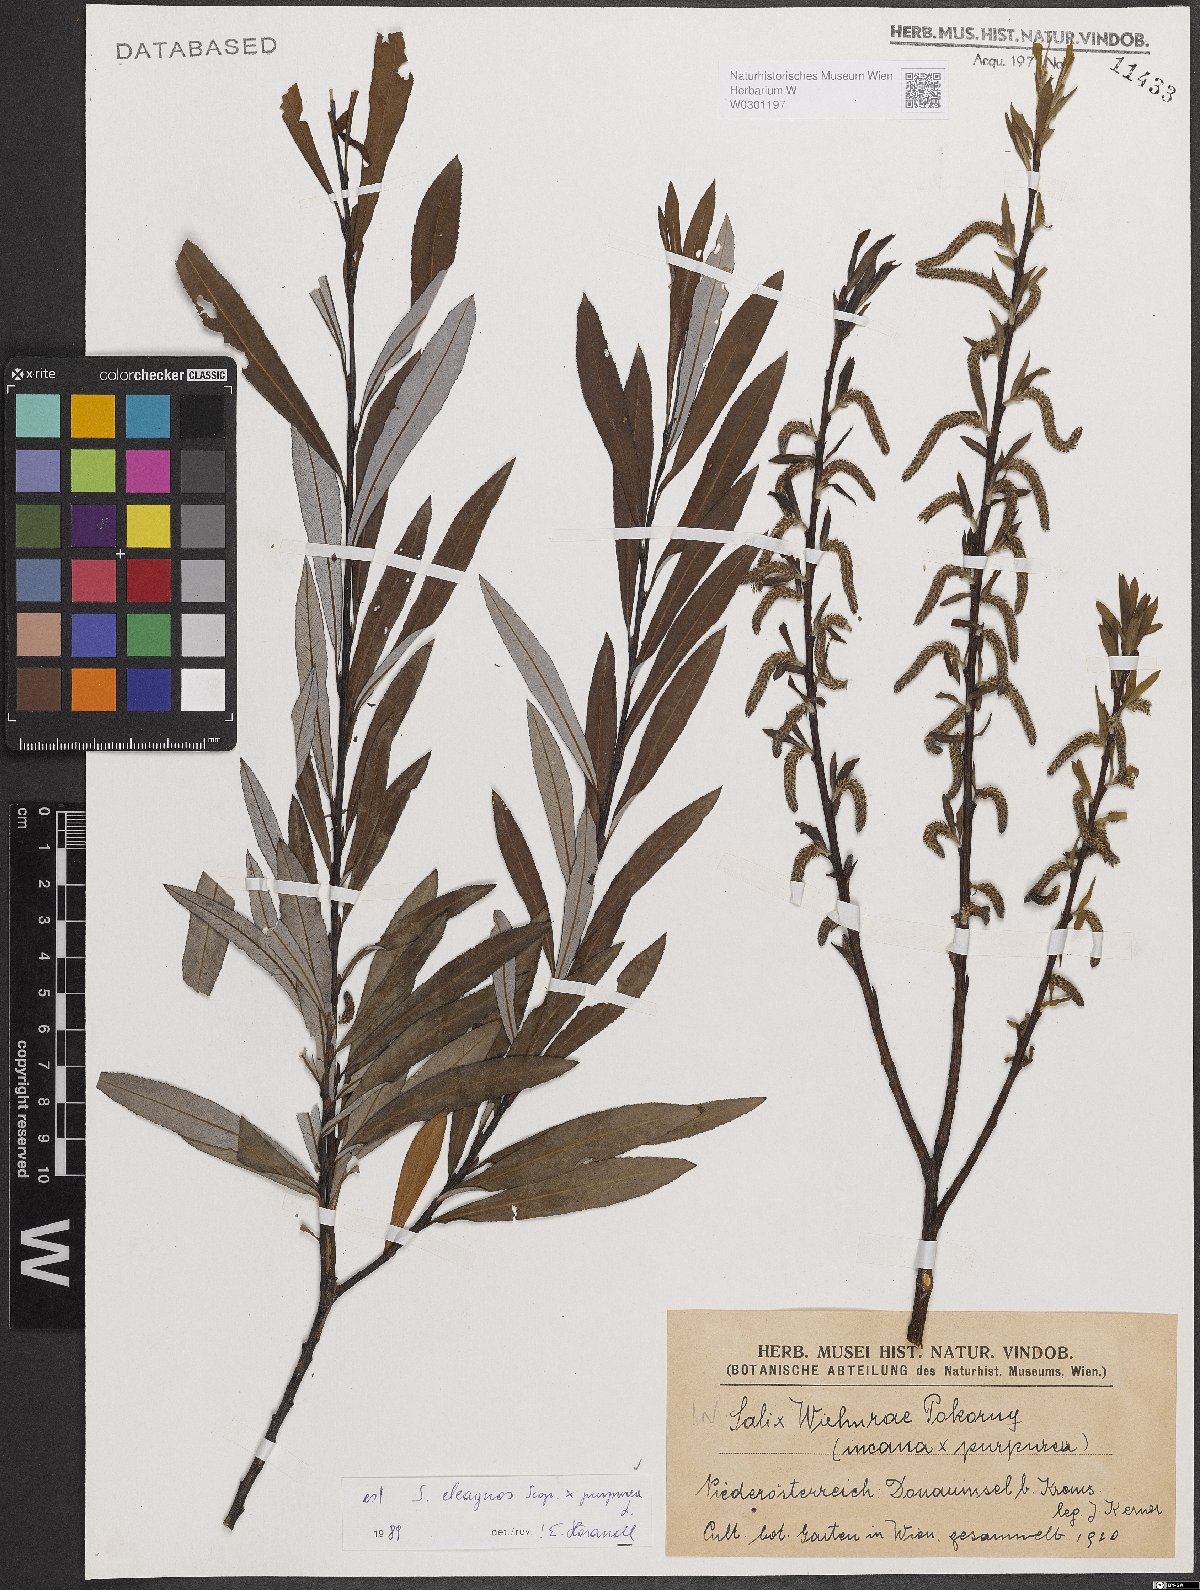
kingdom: Plantae
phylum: Tracheophyta
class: Magnoliopsida
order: Malpighiales
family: Salicaceae
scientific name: Salicaceae
